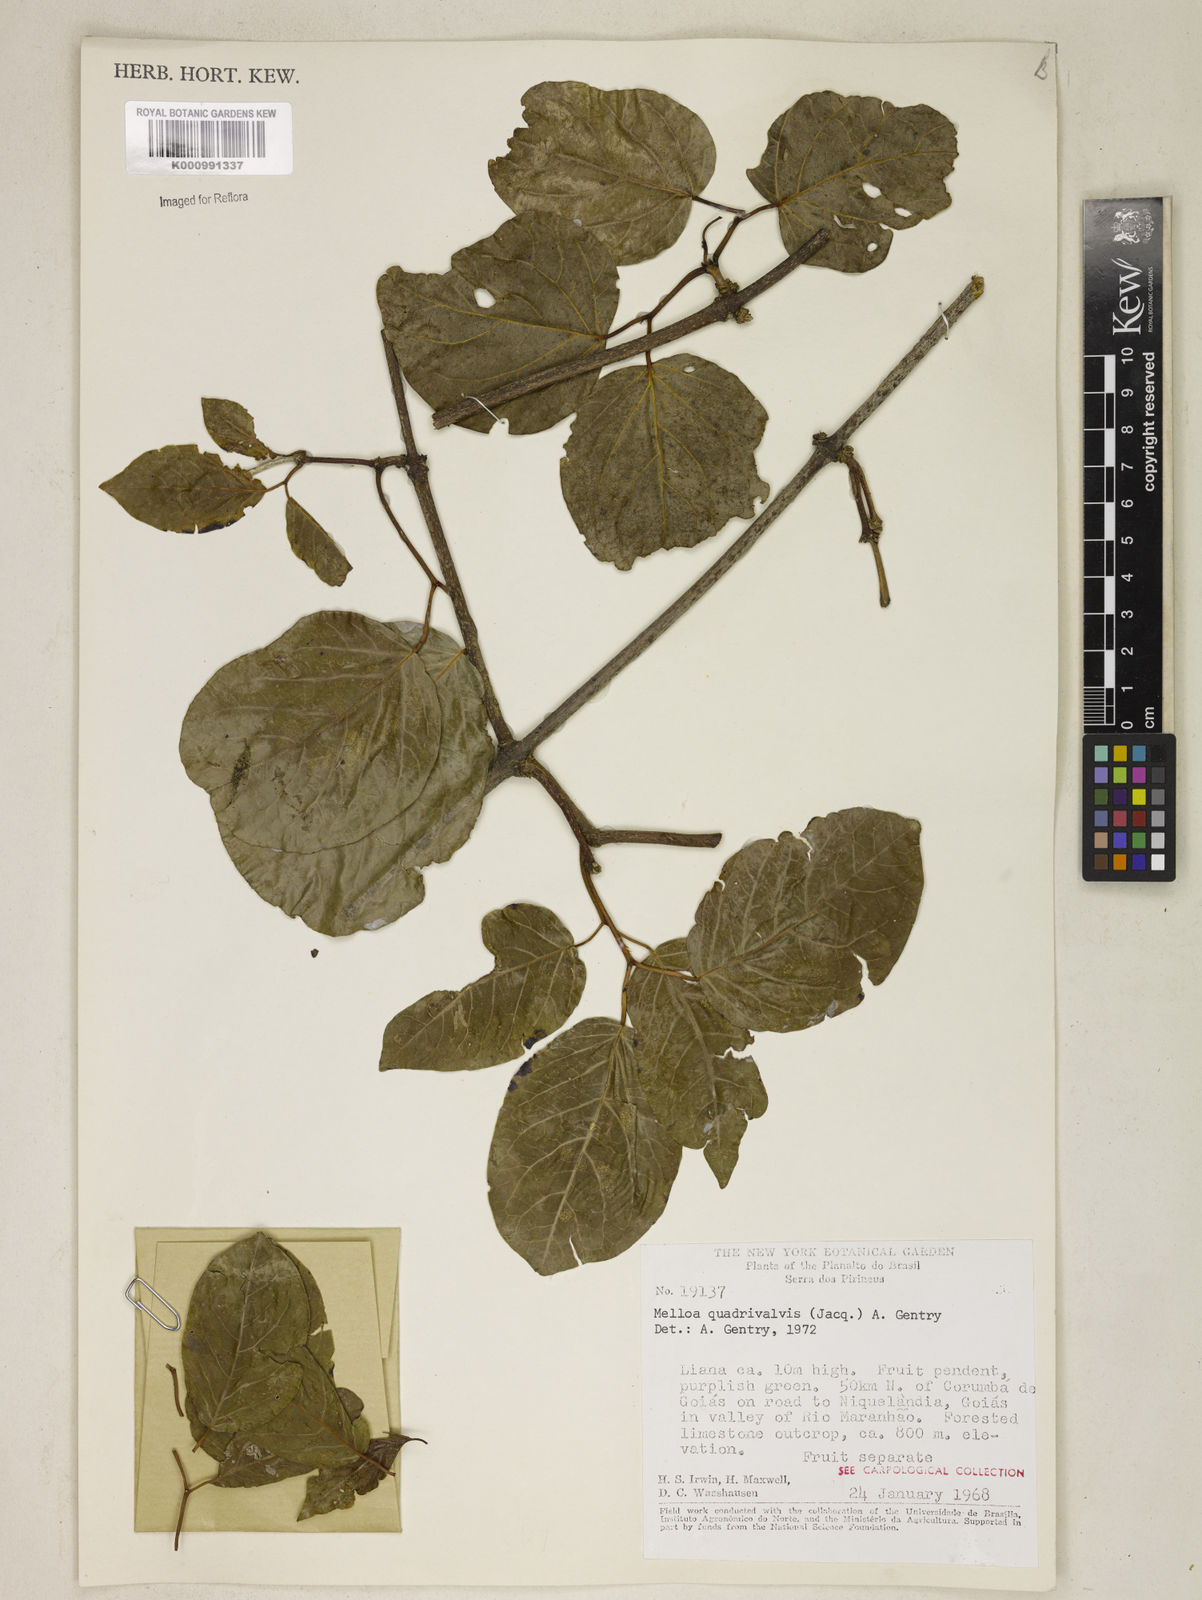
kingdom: Plantae
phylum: Tracheophyta
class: Magnoliopsida
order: Lamiales
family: Bignoniaceae
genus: Dolichandra
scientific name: Dolichandra quadrivalvis
